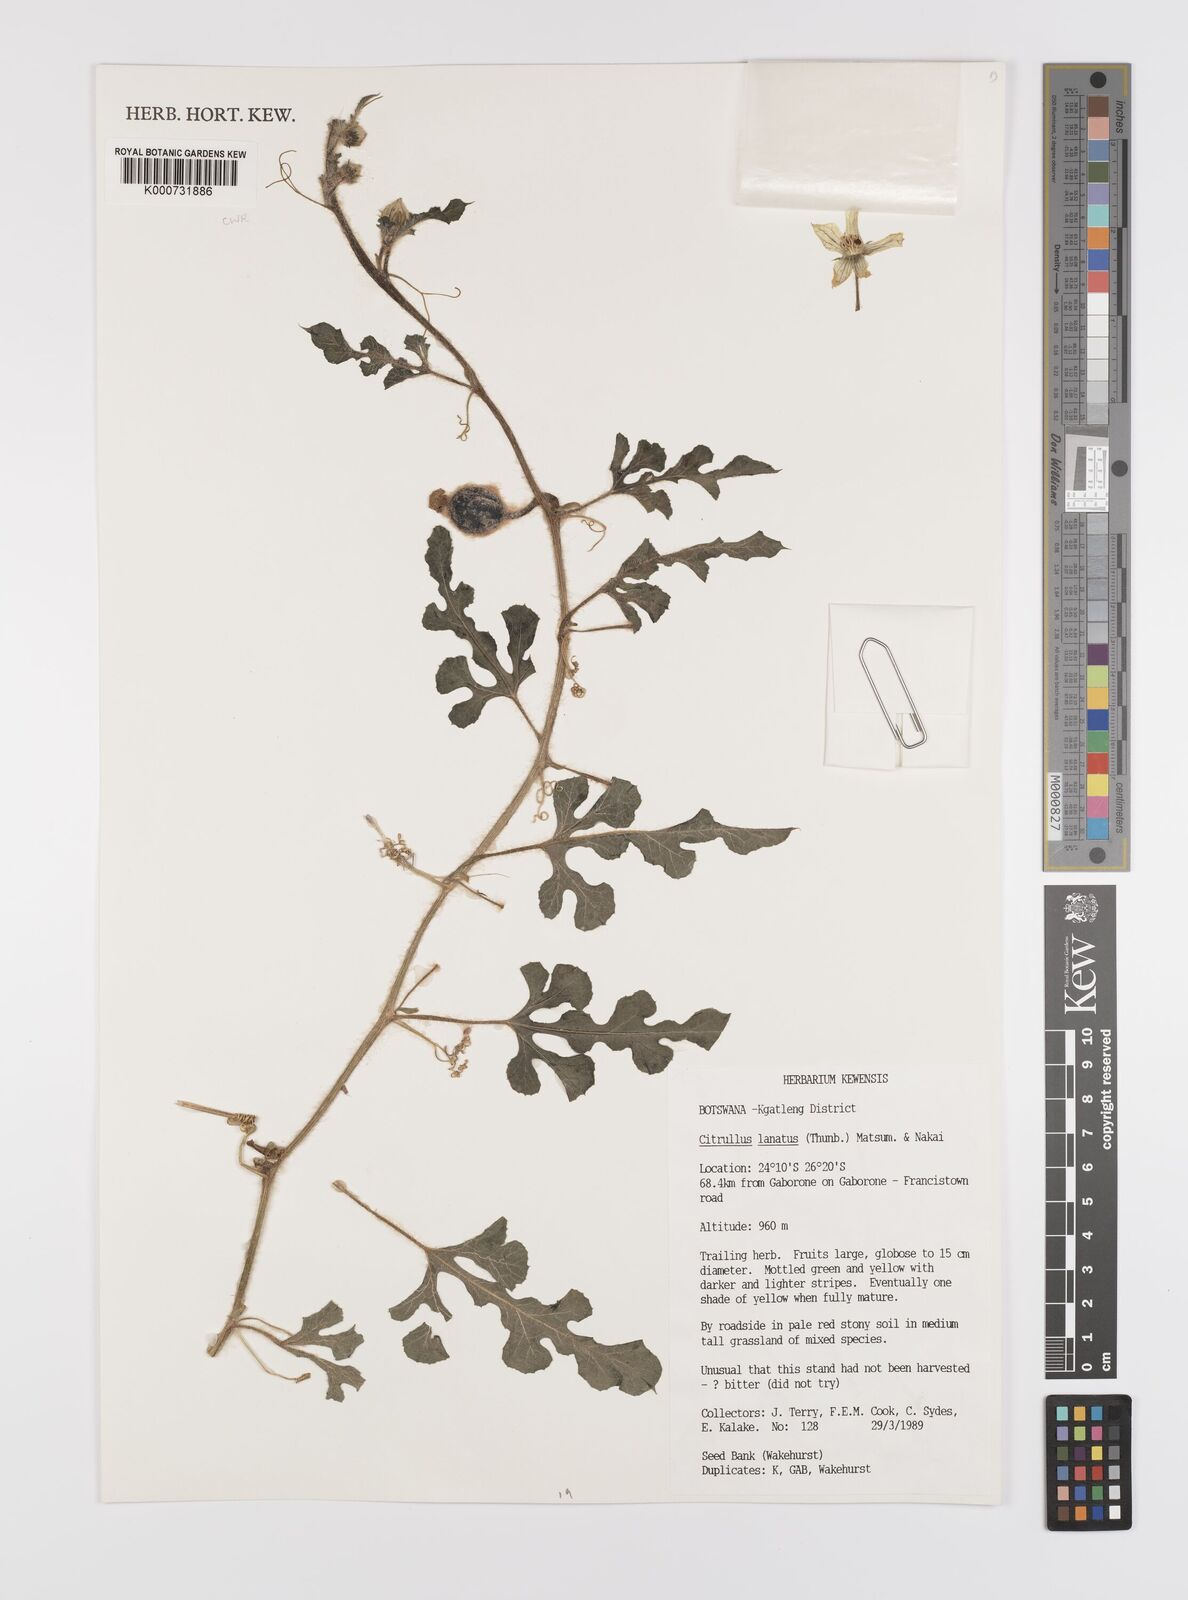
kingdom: Plantae
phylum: Tracheophyta
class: Magnoliopsida
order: Cucurbitales
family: Cucurbitaceae
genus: Citrullus
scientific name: Citrullus lanatus
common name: Watermelon
